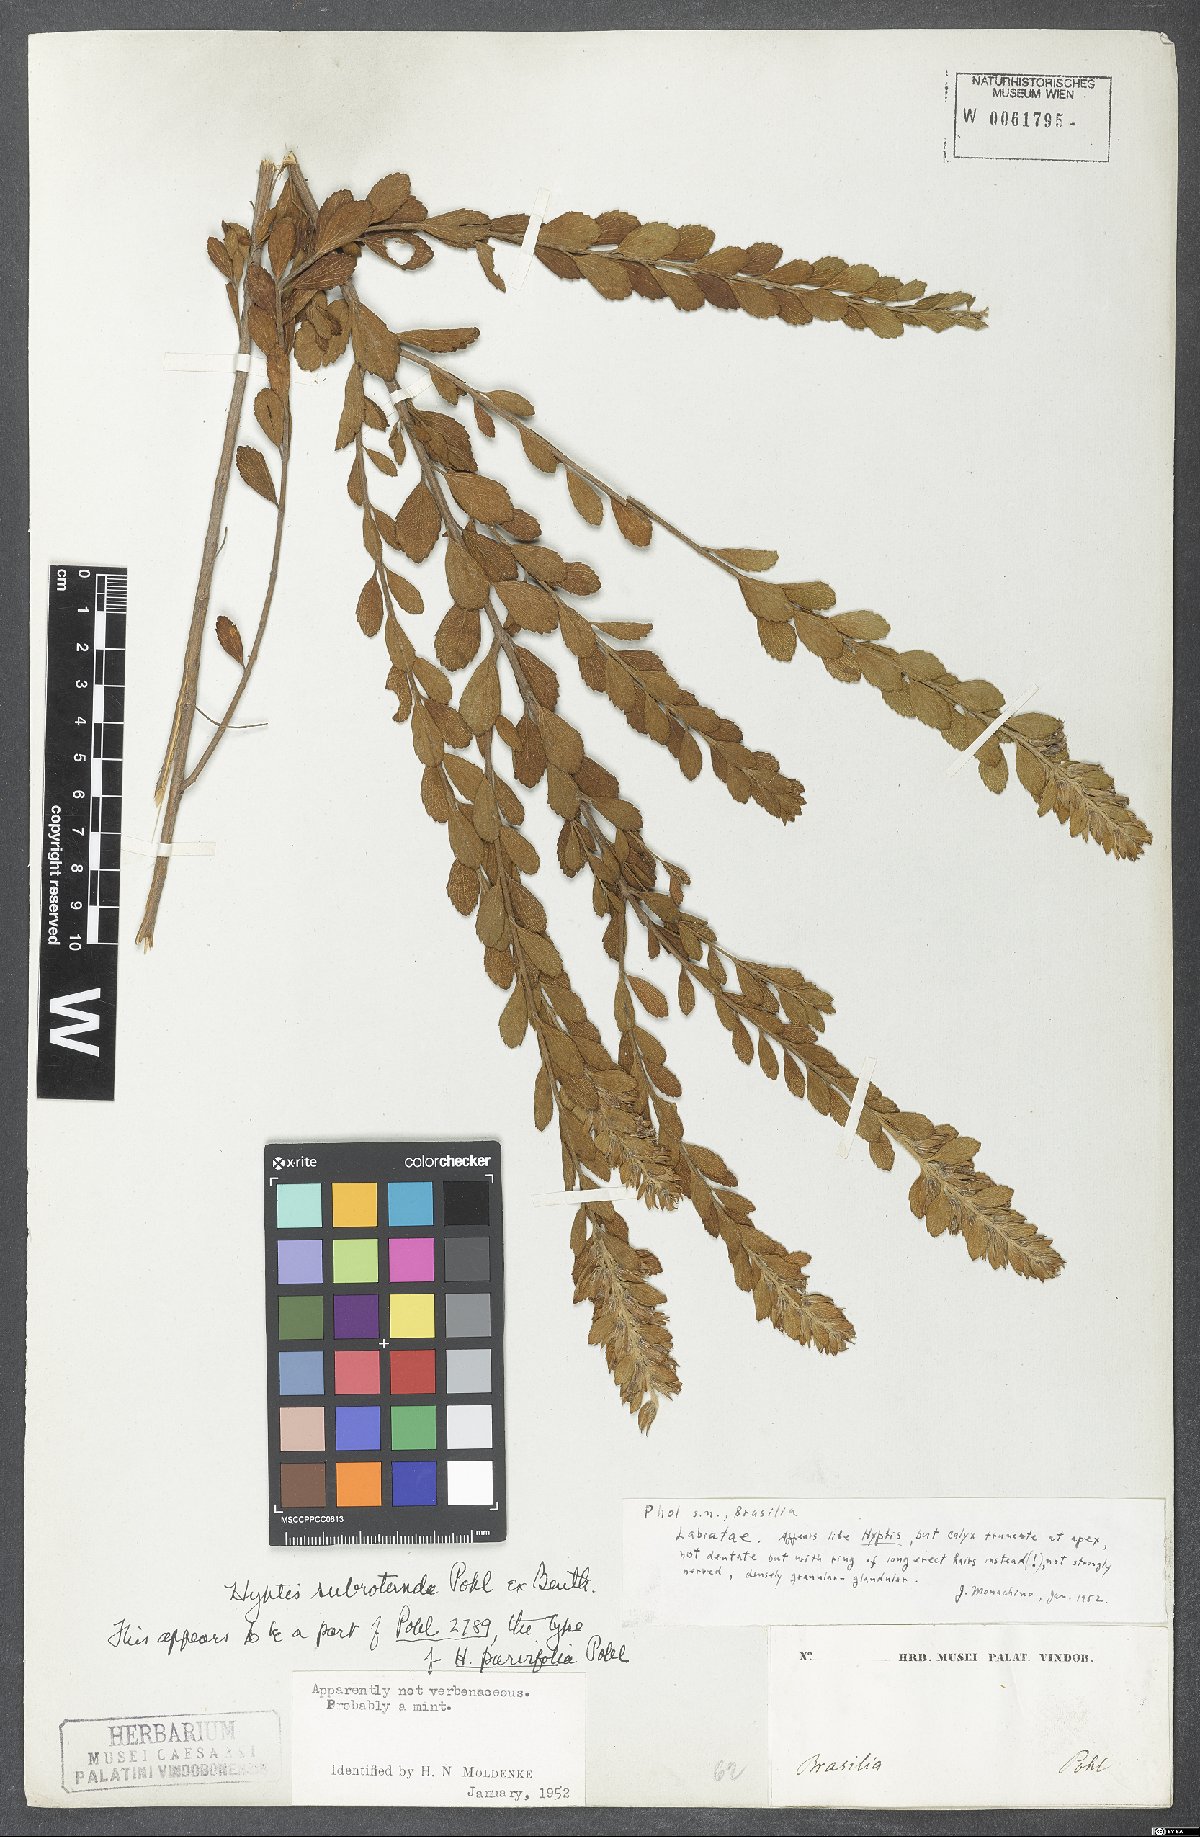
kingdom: Plantae
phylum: Tracheophyta
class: Magnoliopsida
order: Lamiales
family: Lamiaceae
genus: Cantinoa
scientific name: Cantinoa subrotunda
